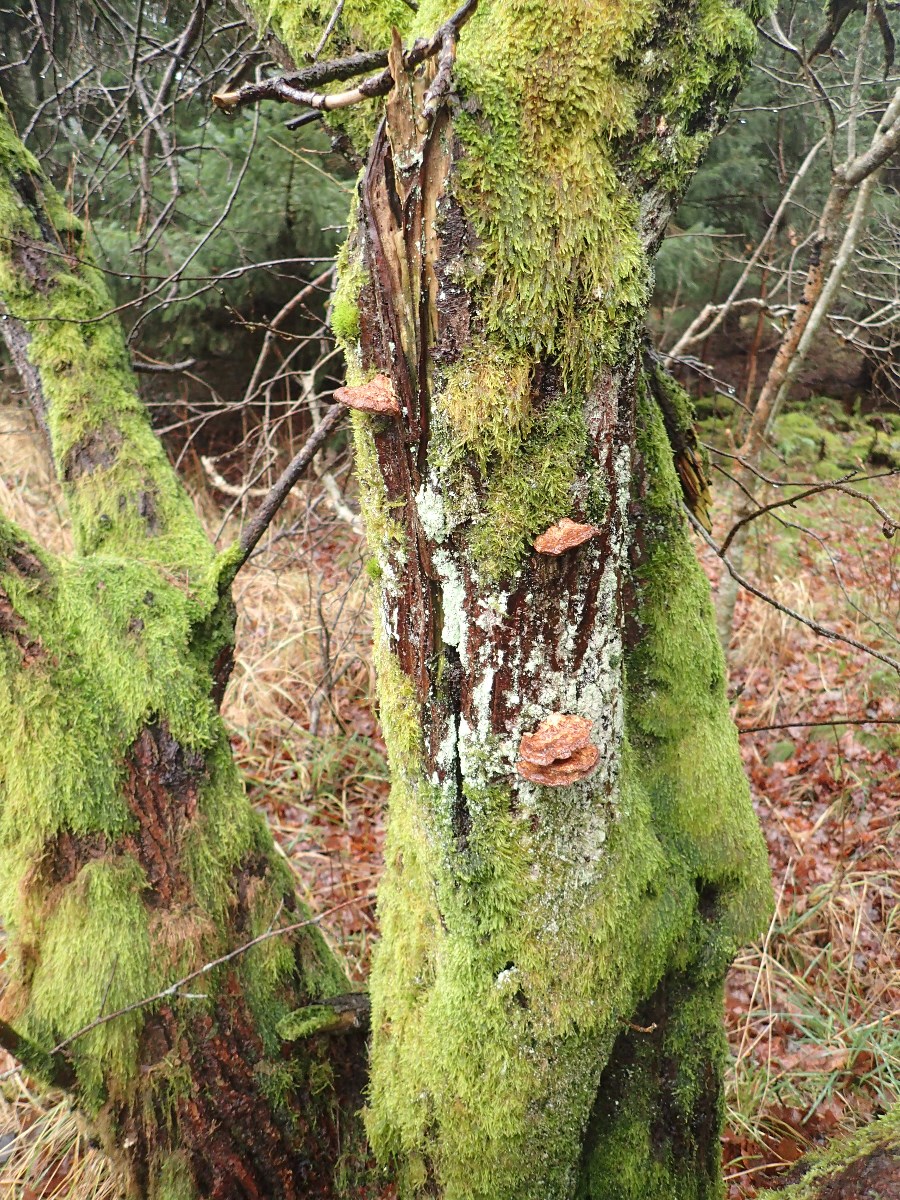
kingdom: Fungi
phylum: Basidiomycota
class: Agaricomycetes
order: Polyporales
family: Polyporaceae
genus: Daedaleopsis
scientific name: Daedaleopsis confragosa
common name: rødmende læderporesvamp
